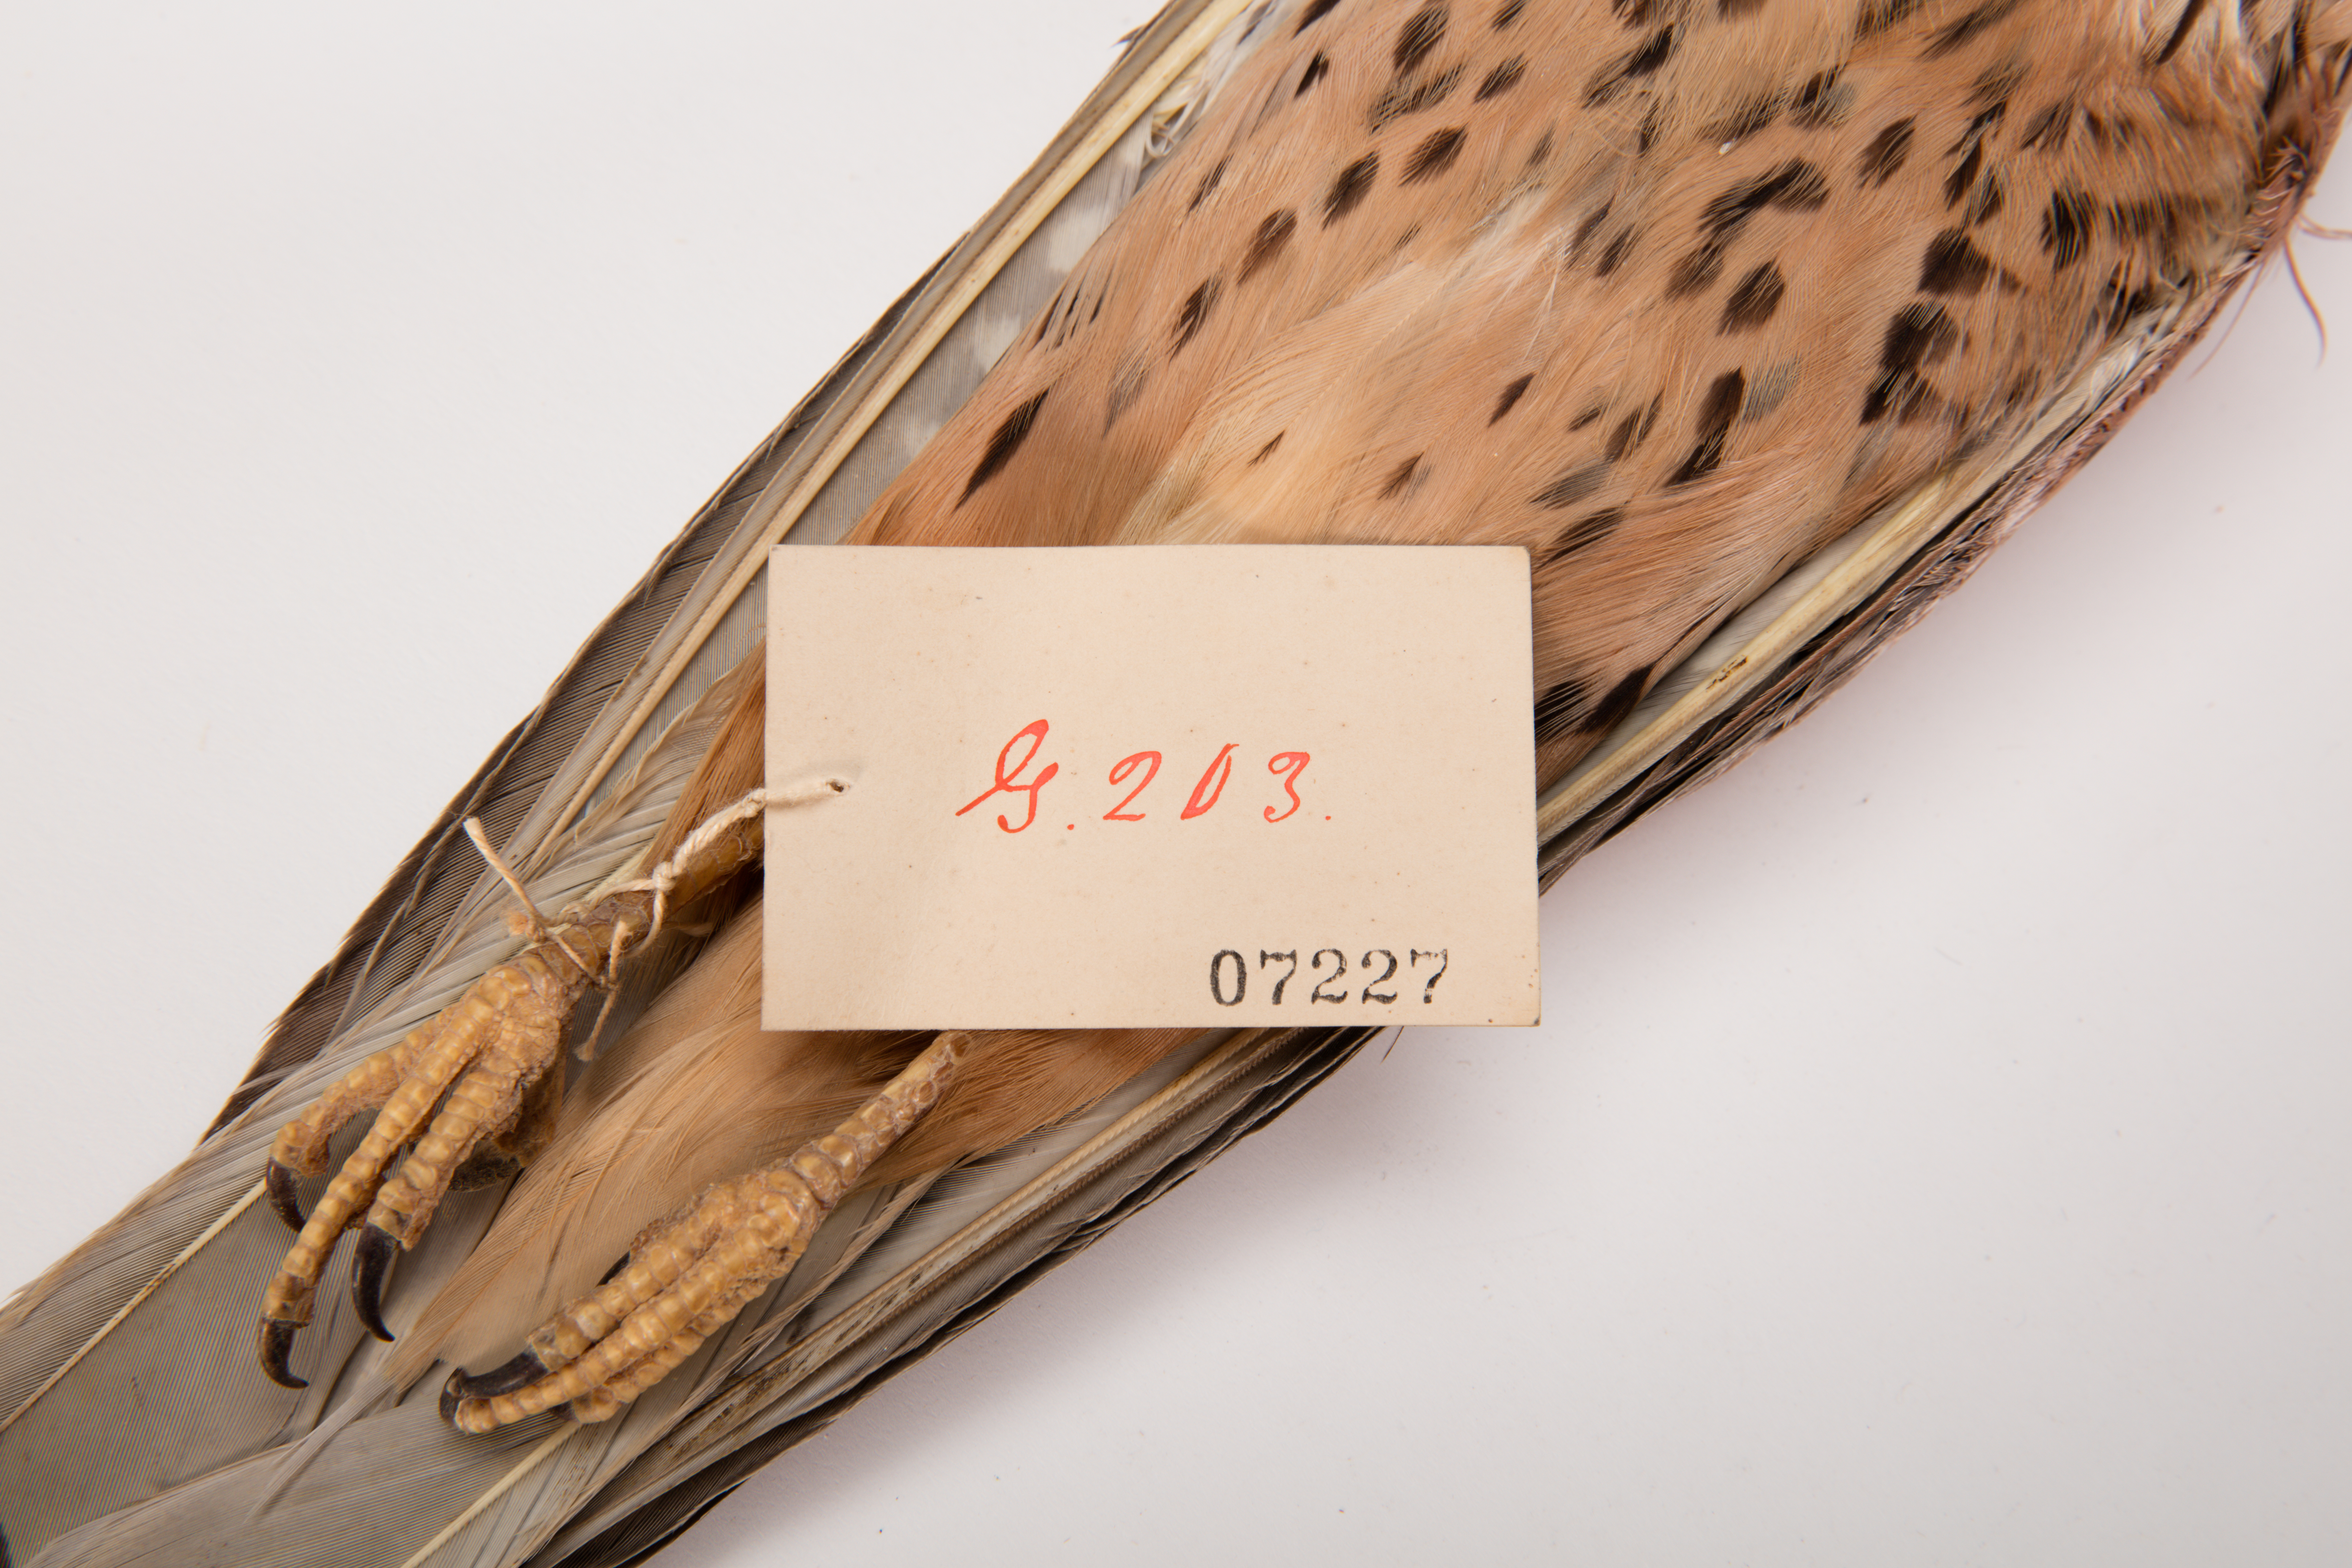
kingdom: Animalia
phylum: Chordata
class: Aves
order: Falconiformes
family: Falconidae
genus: Falco
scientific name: Falco tinnunculus
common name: Common kestrel
